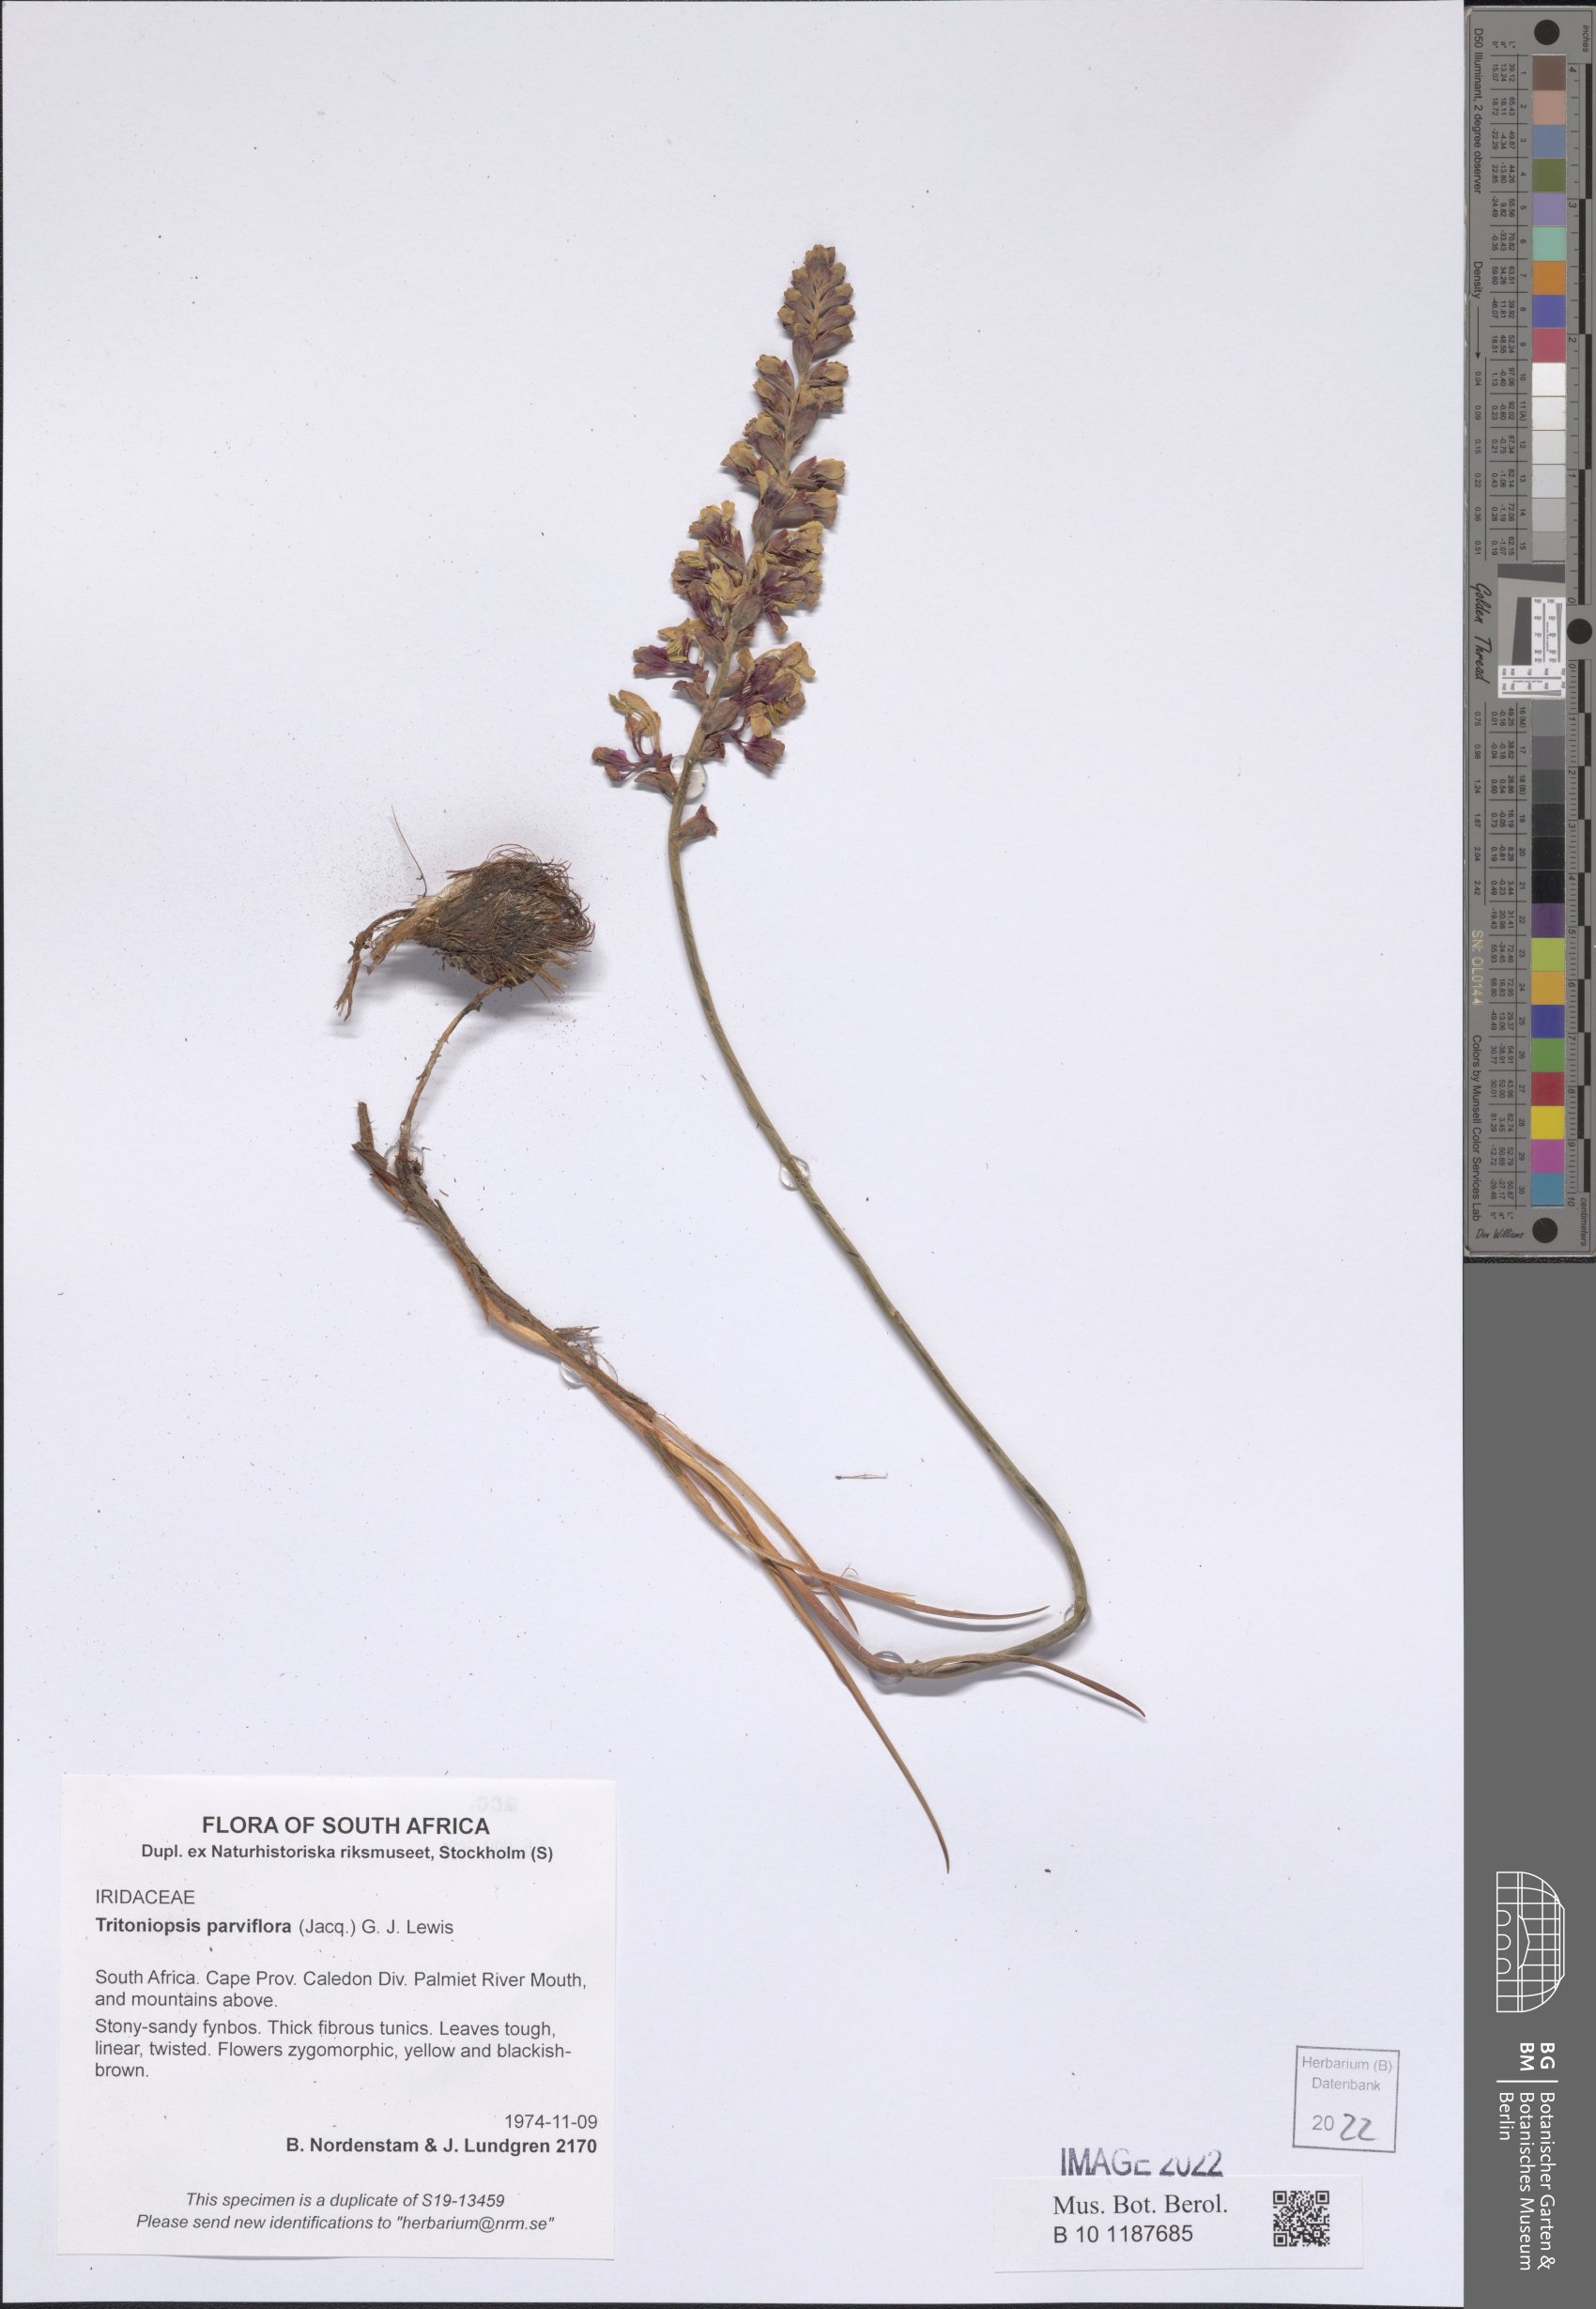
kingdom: Plantae
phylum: Tracheophyta
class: Liliopsida
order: Asparagales
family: Iridaceae
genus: Tritoniopsis
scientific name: Tritoniopsis parviflora
